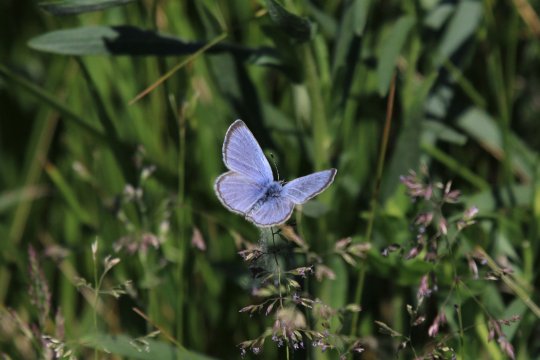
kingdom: Animalia
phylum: Arthropoda
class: Insecta
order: Lepidoptera
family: Lycaenidae
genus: Glaucopsyche
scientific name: Glaucopsyche lygdamus
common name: Silvery Blue
